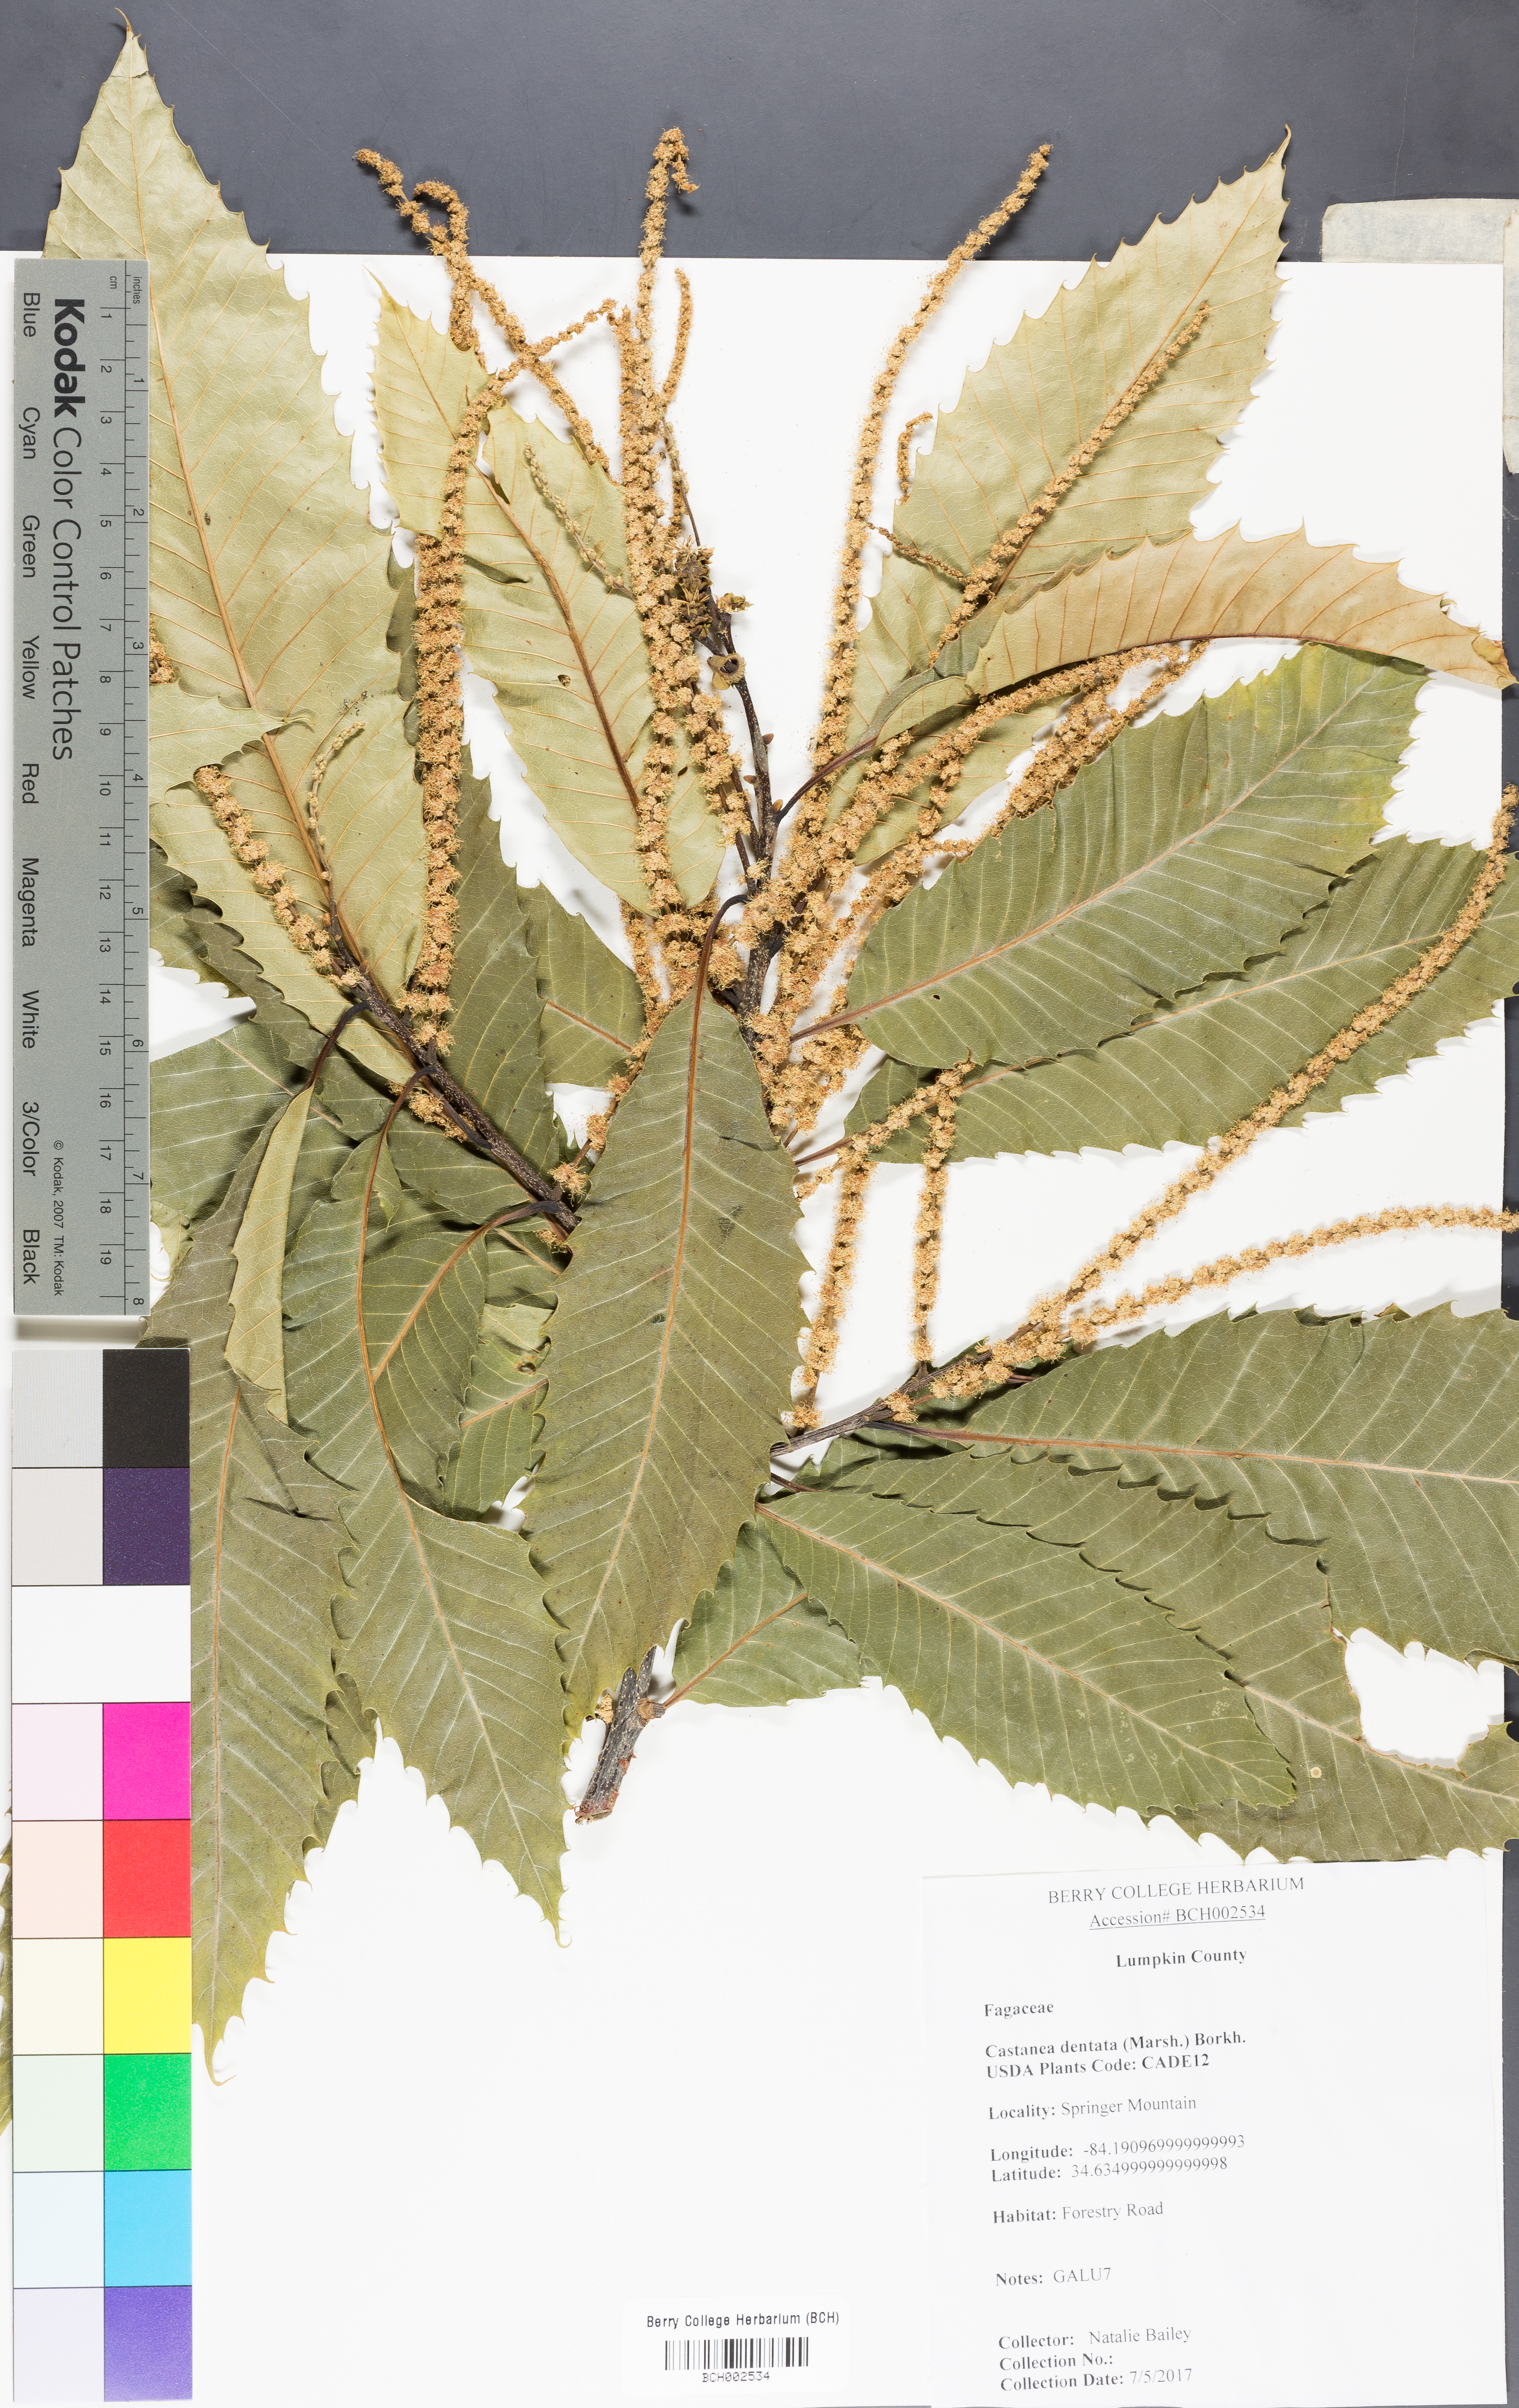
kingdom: Plantae
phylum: Tracheophyta
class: Magnoliopsida
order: Fagales
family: Fagaceae
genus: Castanea
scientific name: Castanea dentata
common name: American chestnut
